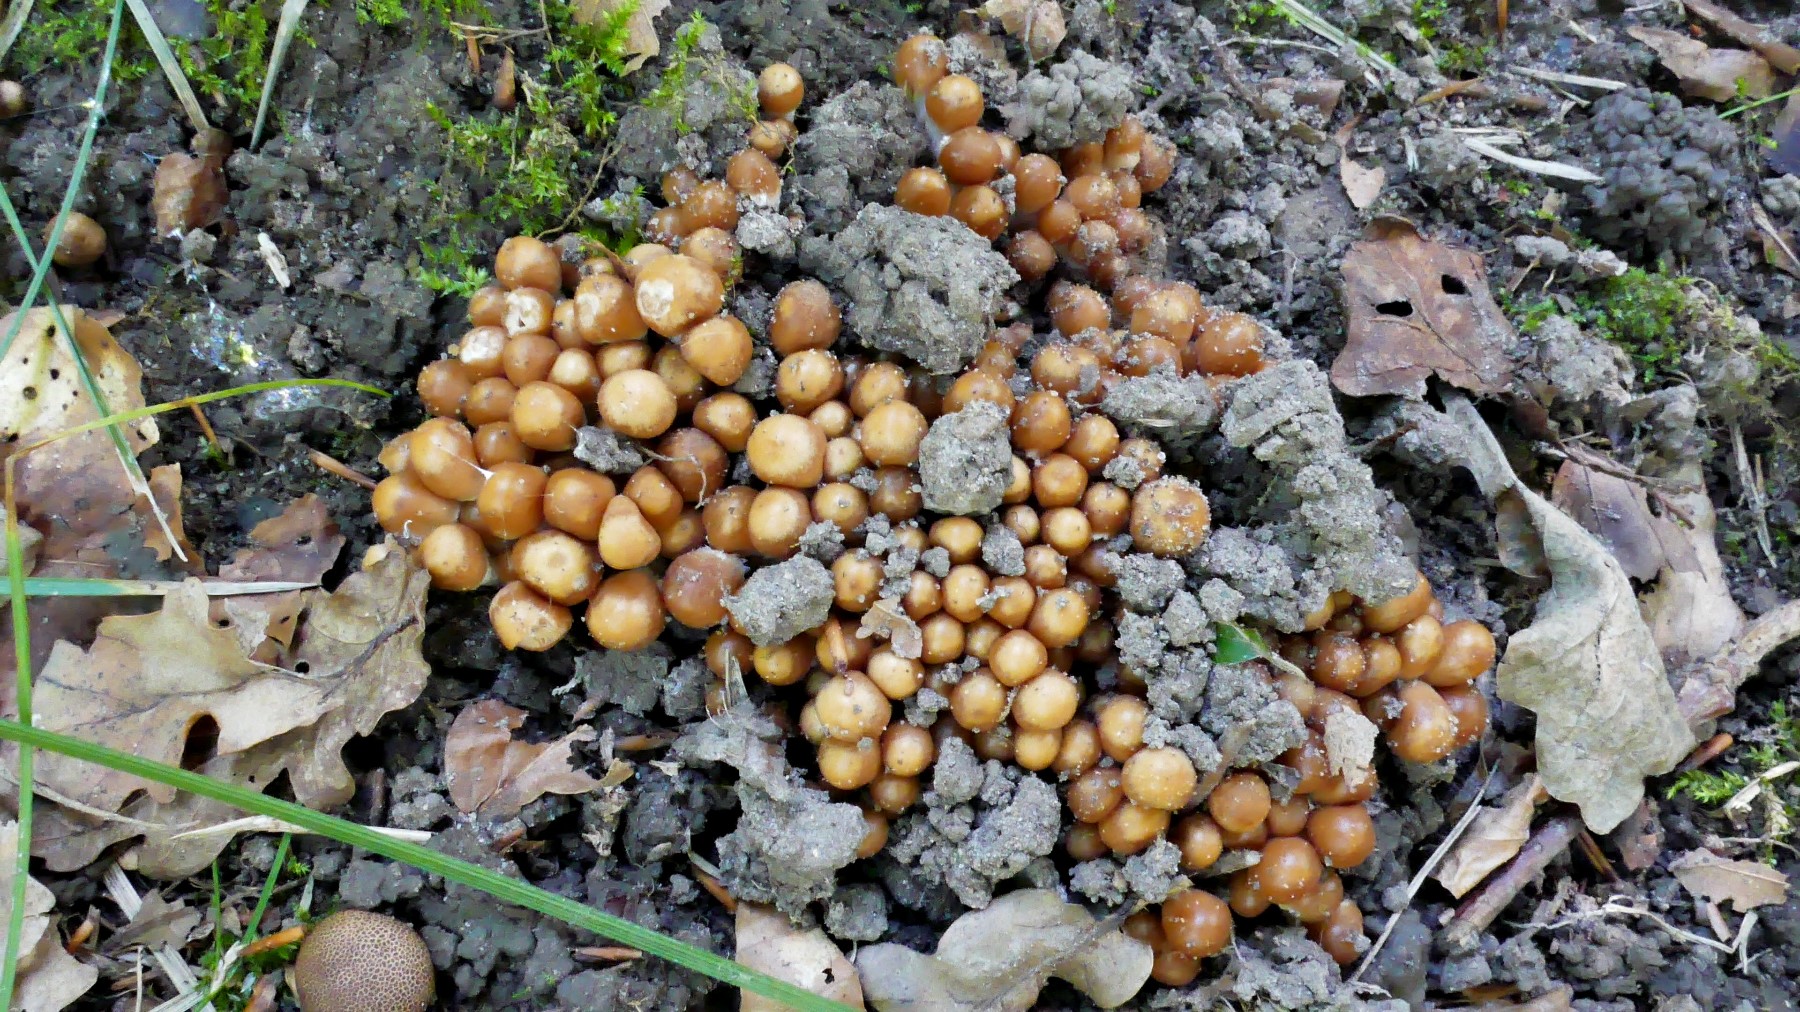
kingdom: Fungi
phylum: Basidiomycota
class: Agaricomycetes
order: Agaricales
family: Psathyrellaceae
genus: Britzelmayria
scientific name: Britzelmayria multipedata
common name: knippe-mørkhat
